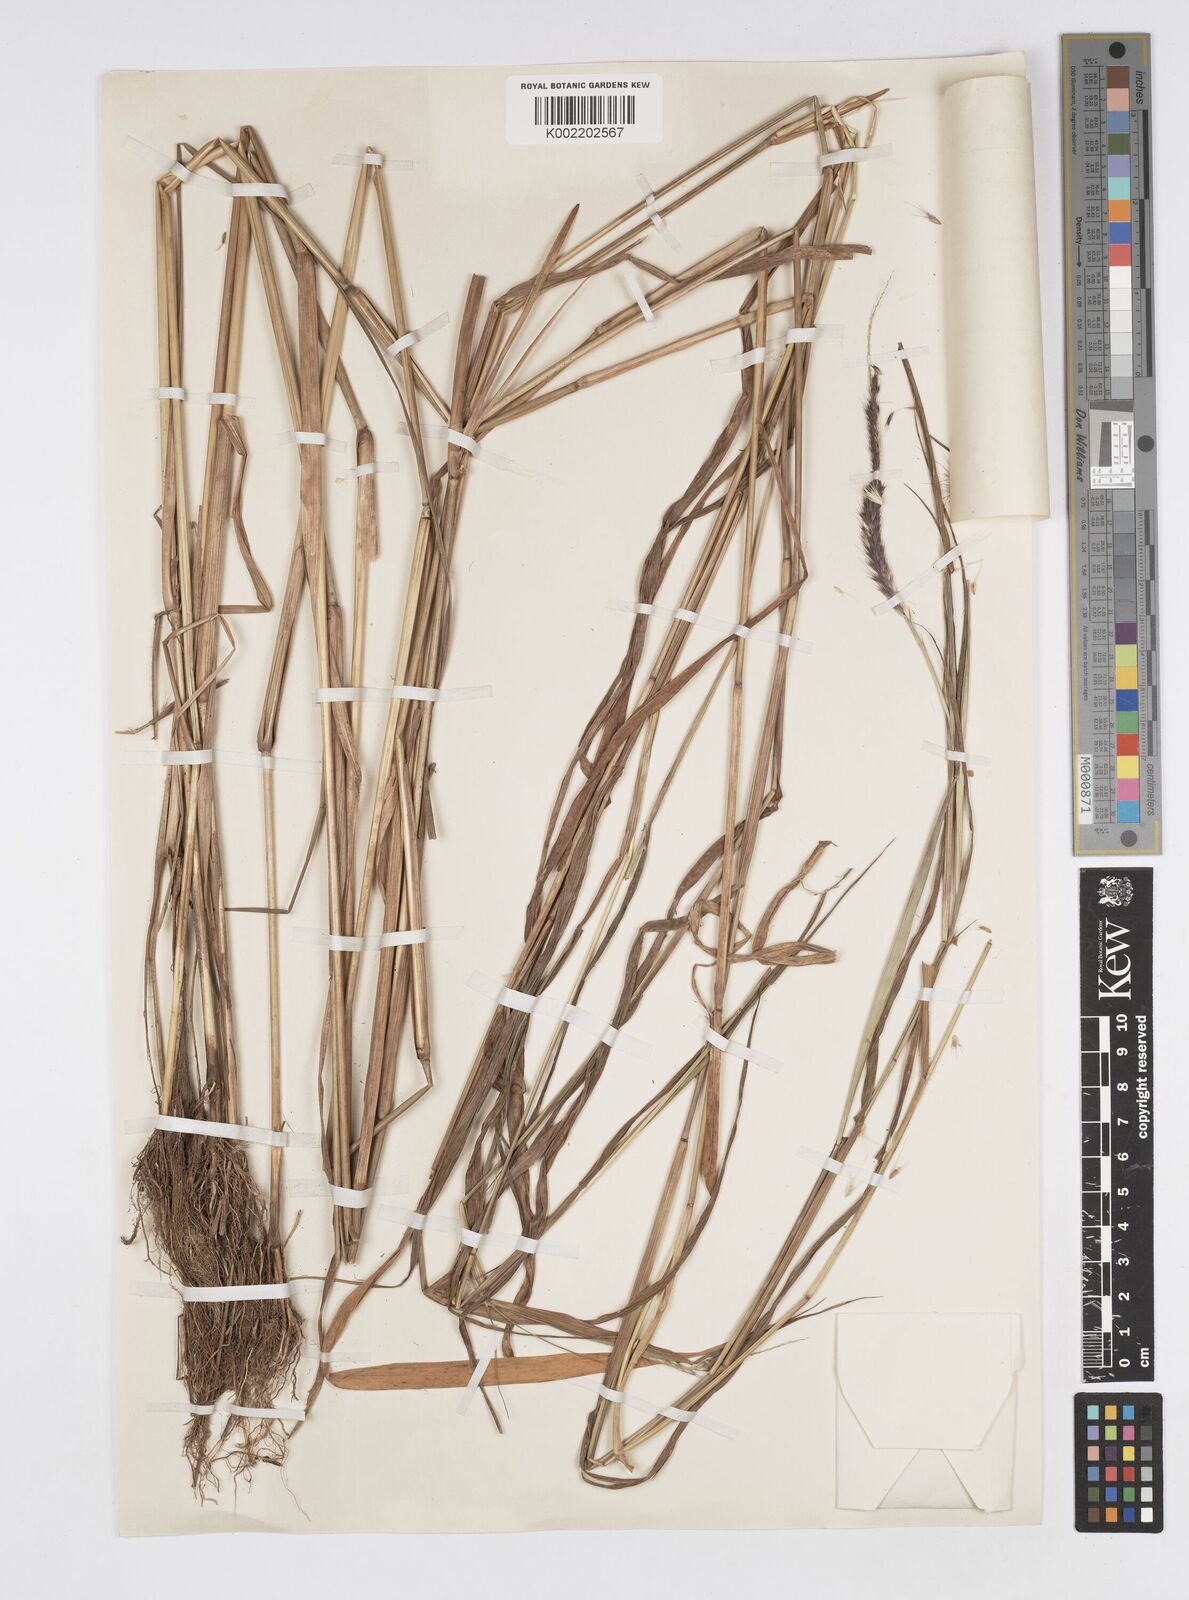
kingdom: Plantae
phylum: Tracheophyta
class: Liliopsida
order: Poales
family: Poaceae
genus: Setaria
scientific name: Setaria parviflora
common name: Knotroot bristle-grass
